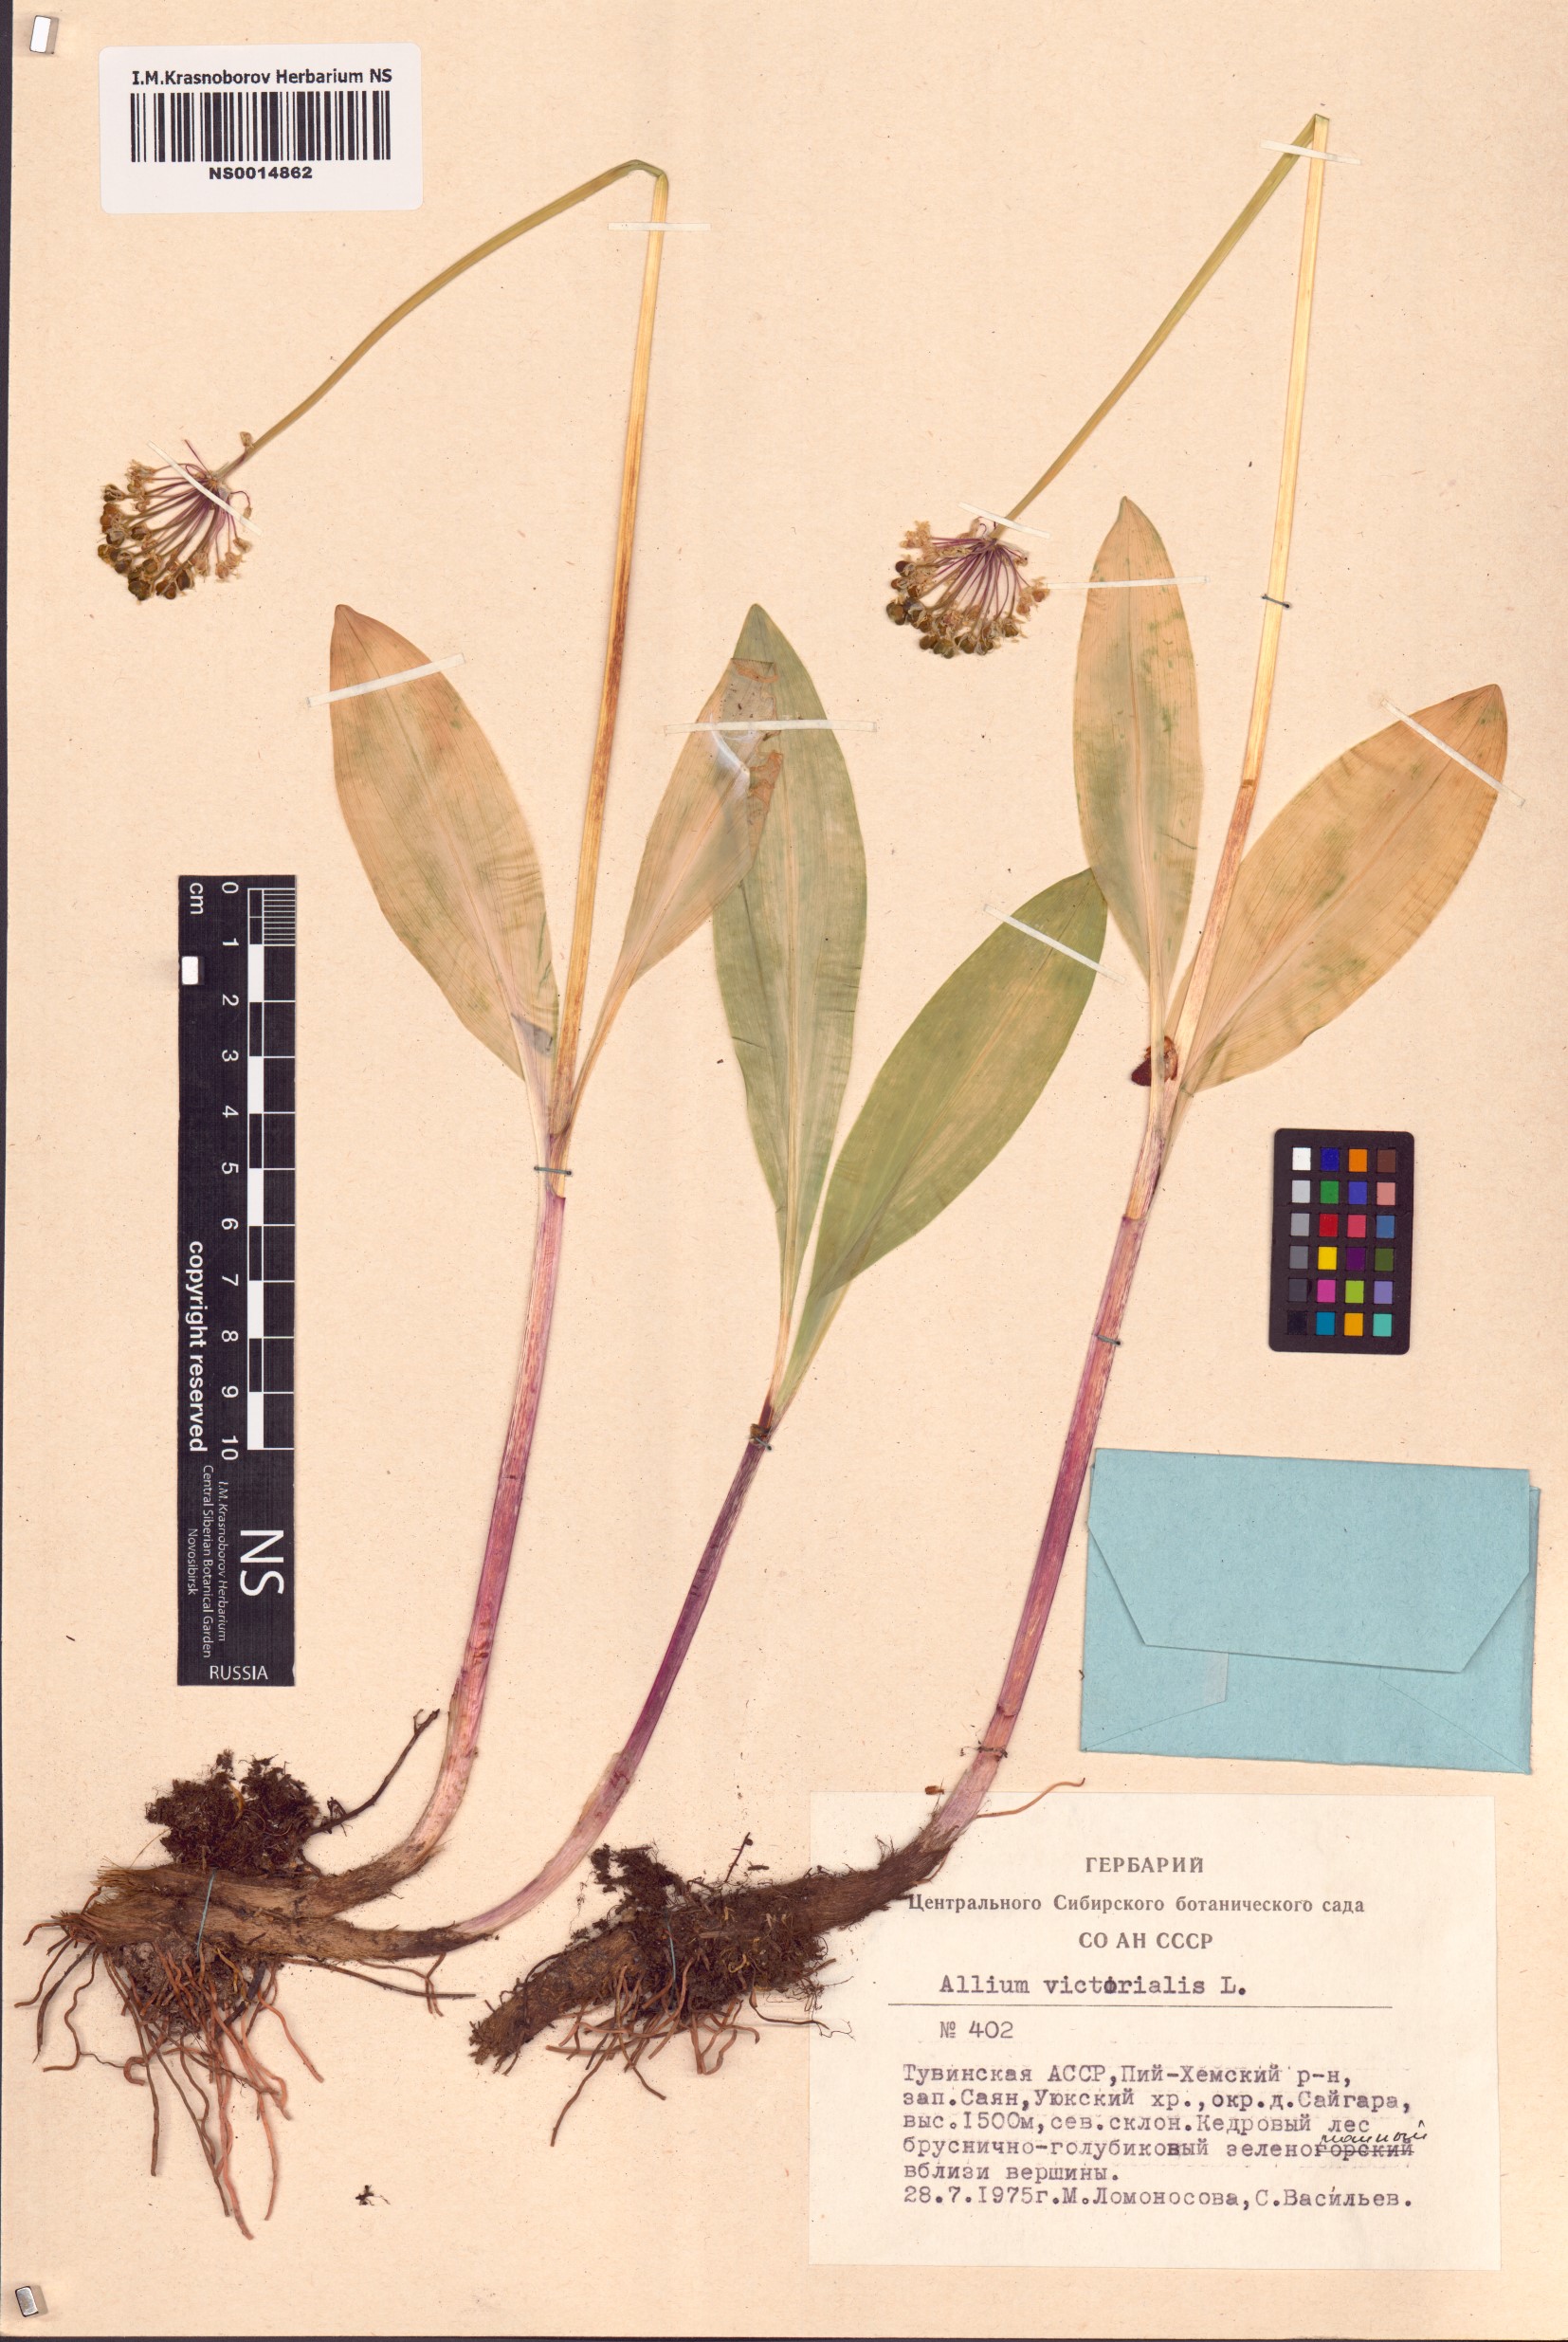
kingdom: Plantae
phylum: Tracheophyta
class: Liliopsida
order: Asparagales
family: Amaryllidaceae
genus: Allium
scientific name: Allium victorialis
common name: Alpine leek
